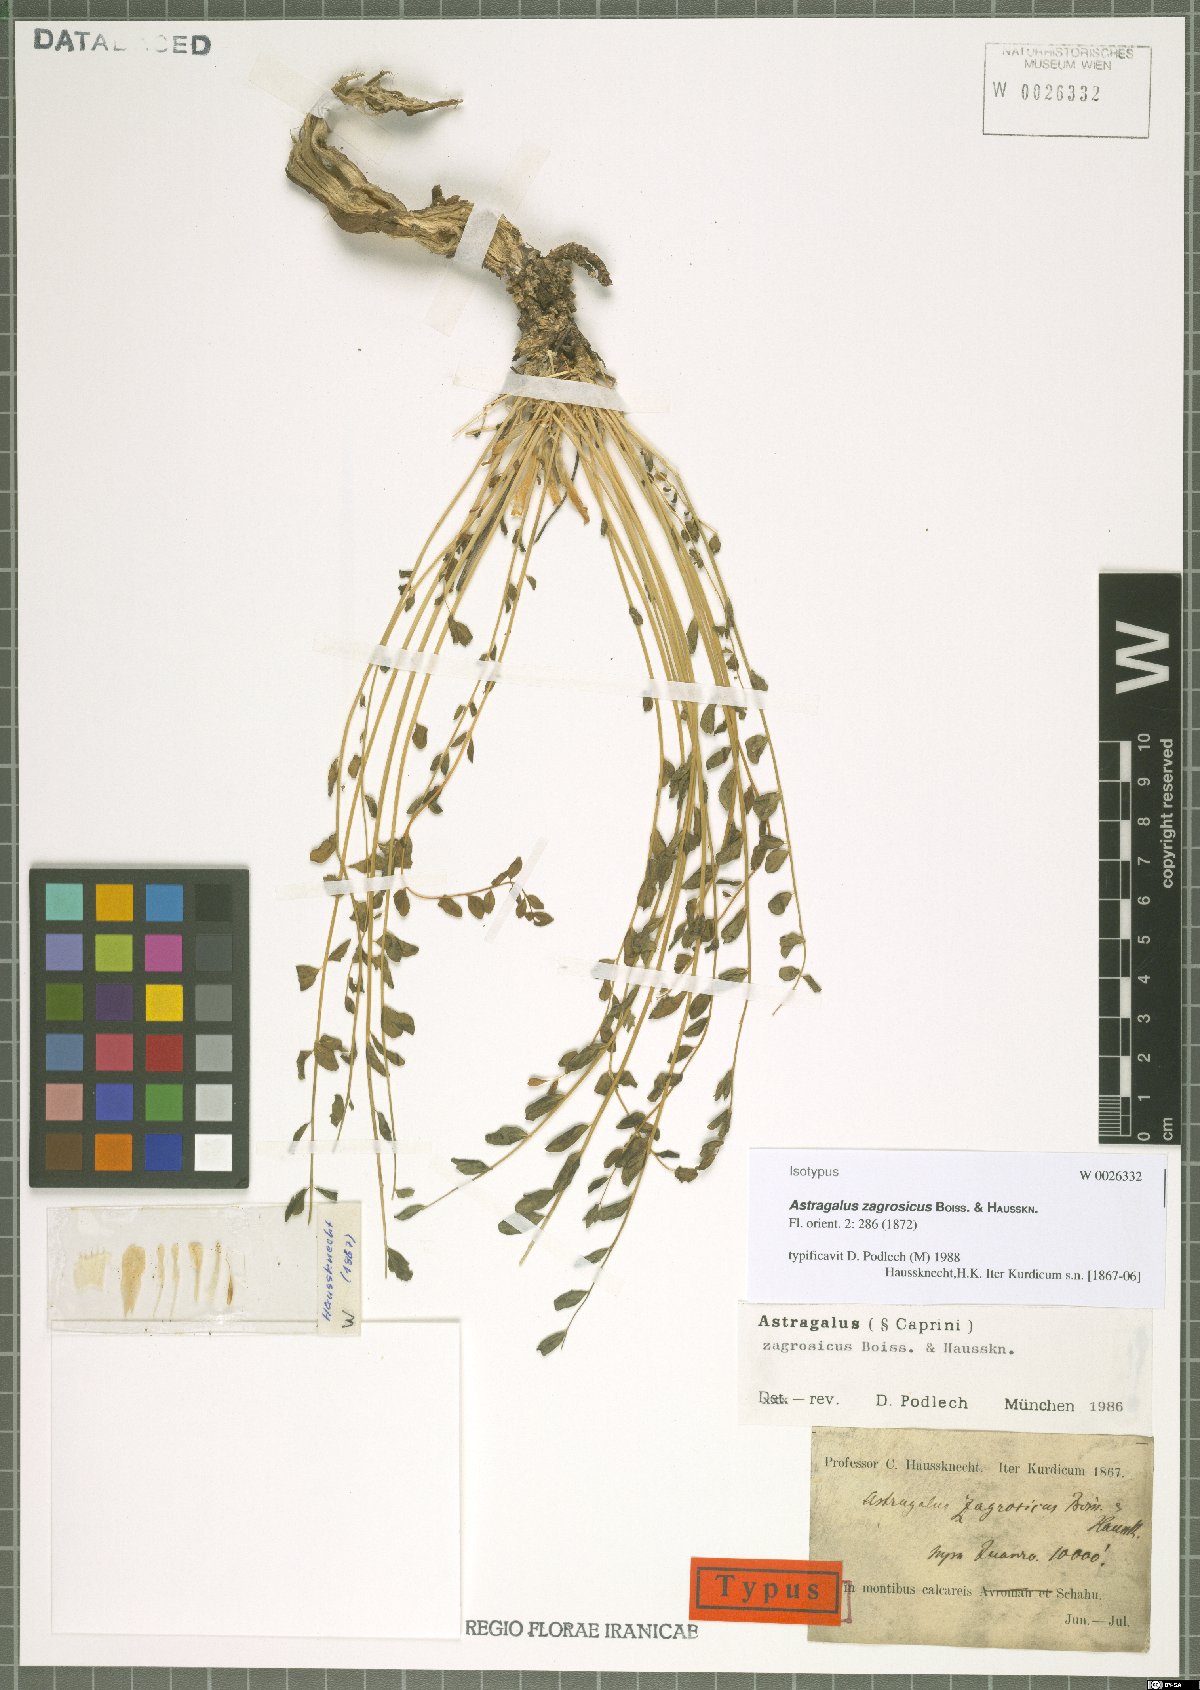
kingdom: Plantae
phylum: Tracheophyta
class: Magnoliopsida
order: Fabales
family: Fabaceae
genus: Astragalus
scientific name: Astragalus zagrosicus
